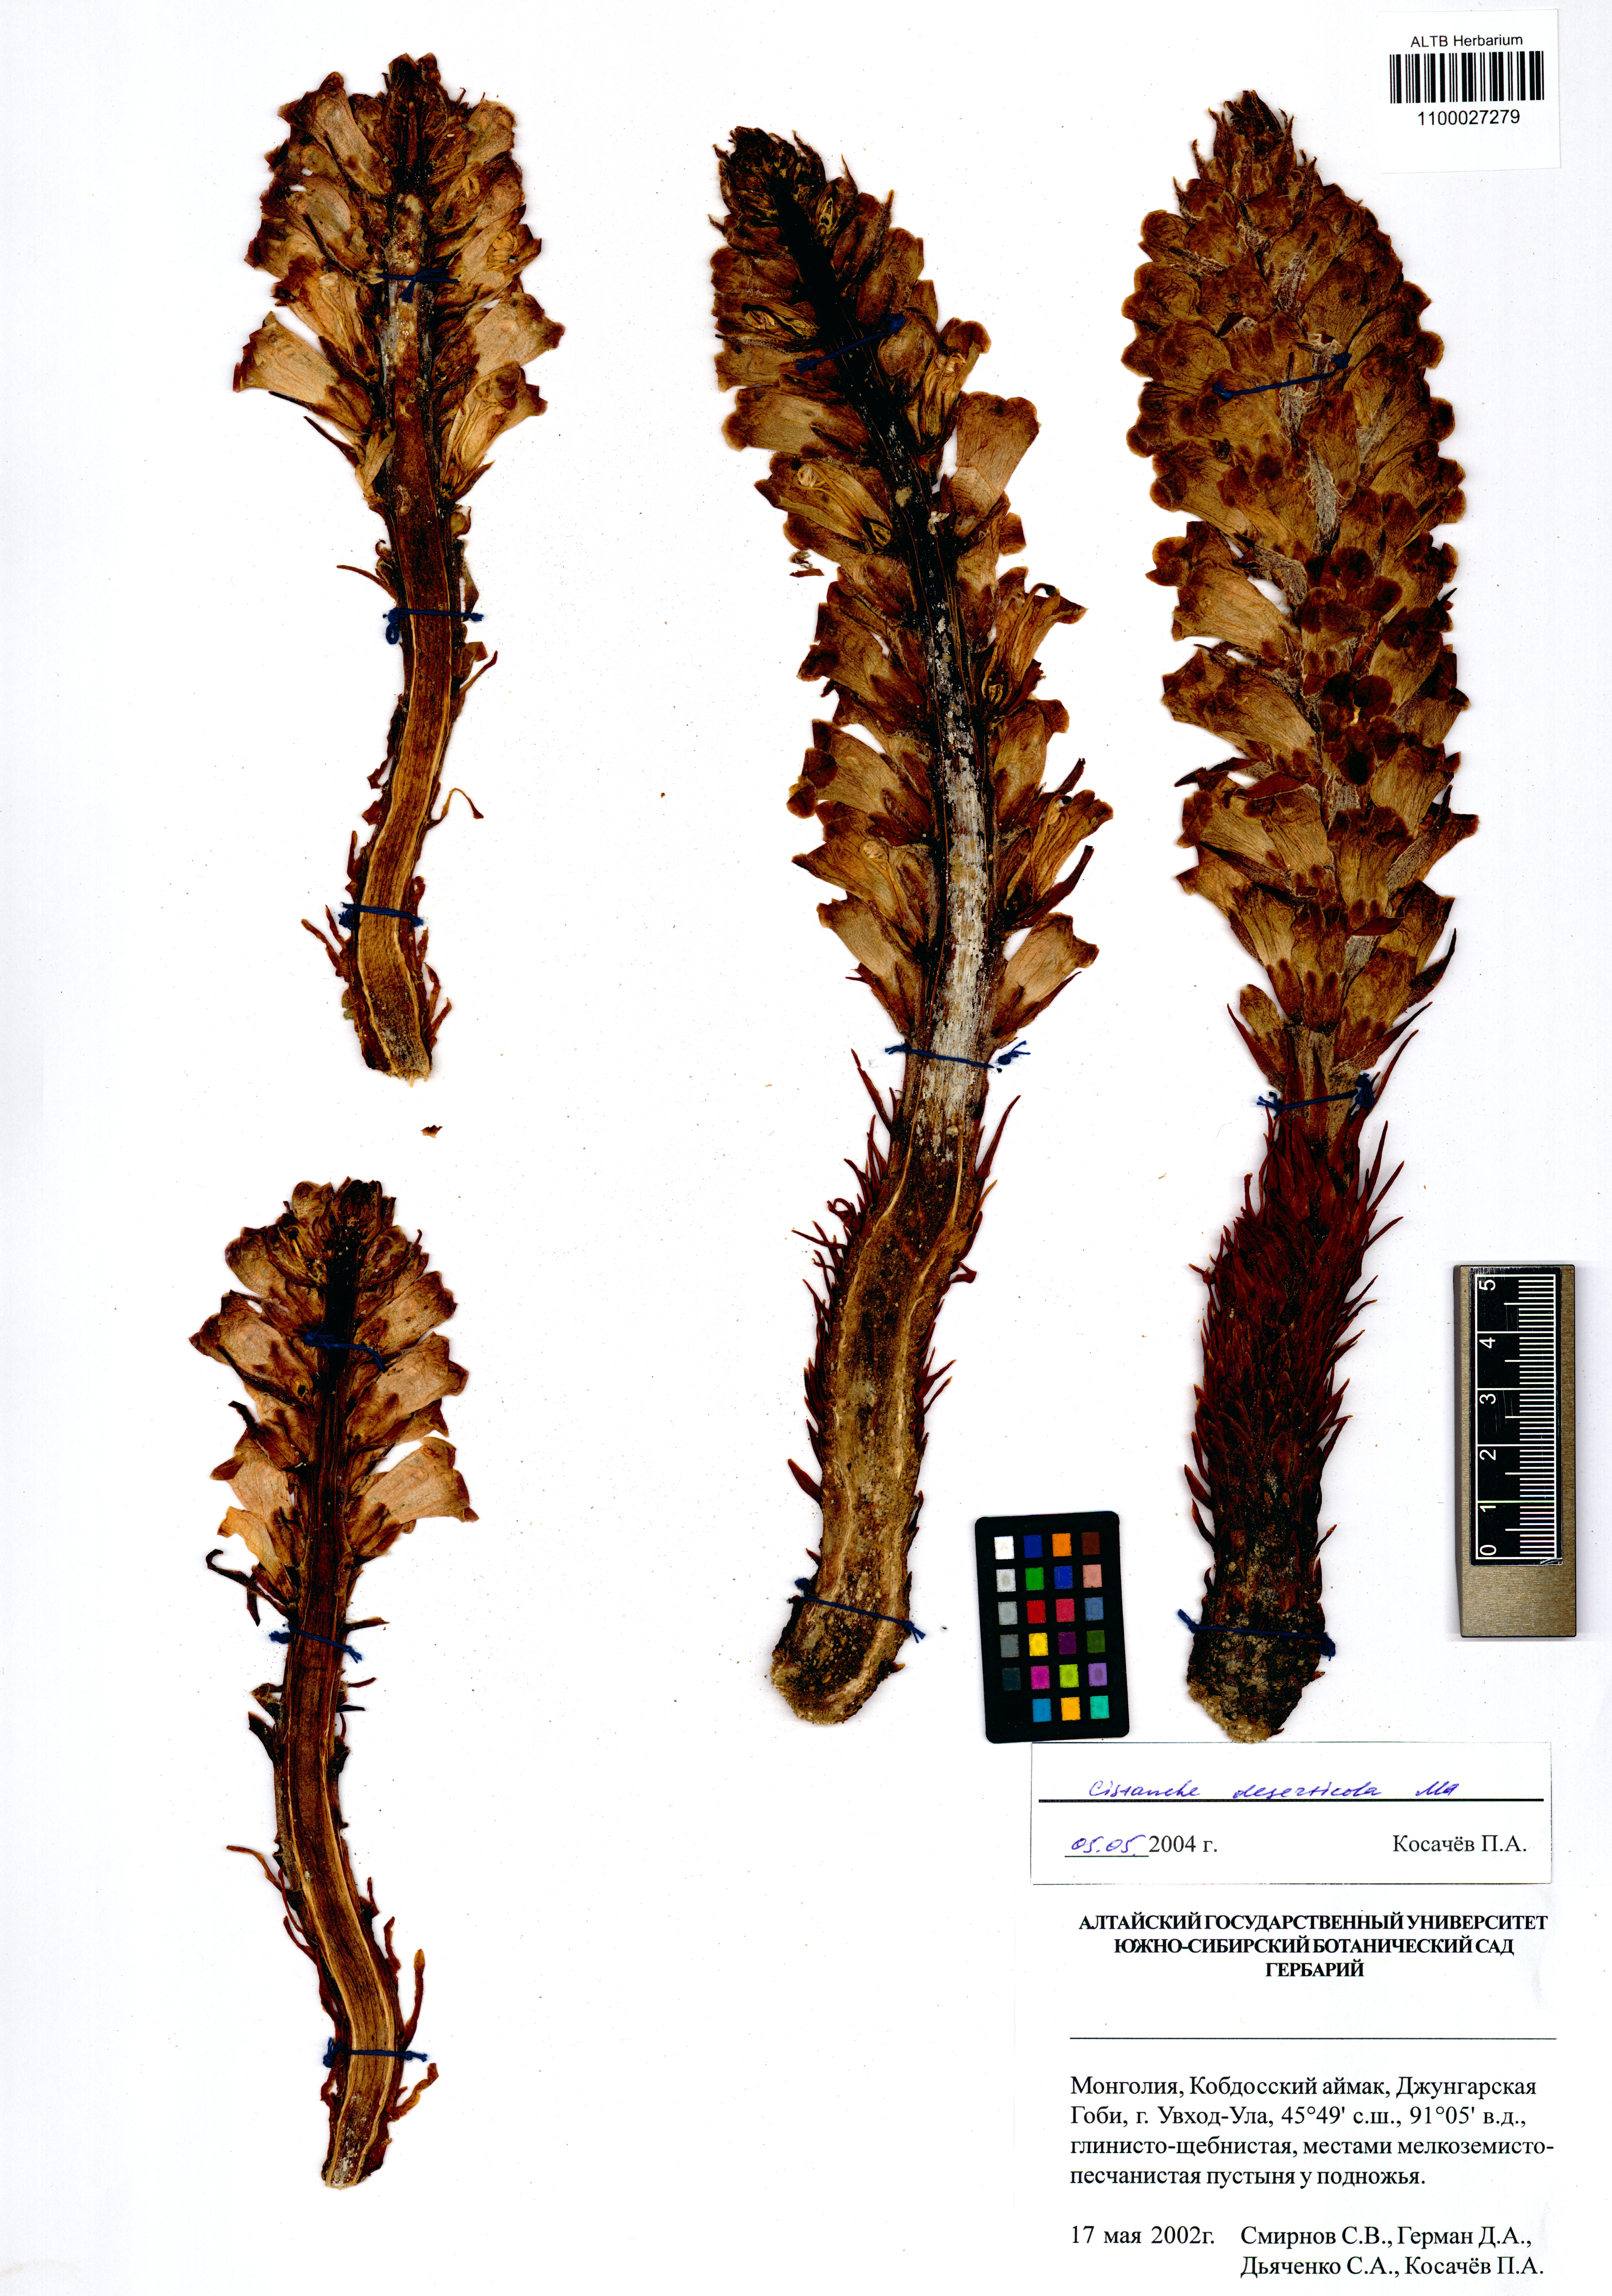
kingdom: Plantae
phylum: Tracheophyta
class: Magnoliopsida
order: Lamiales
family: Orobanchaceae
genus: Cistanche
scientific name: Cistanche deserticola
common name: Desert-broomrape
